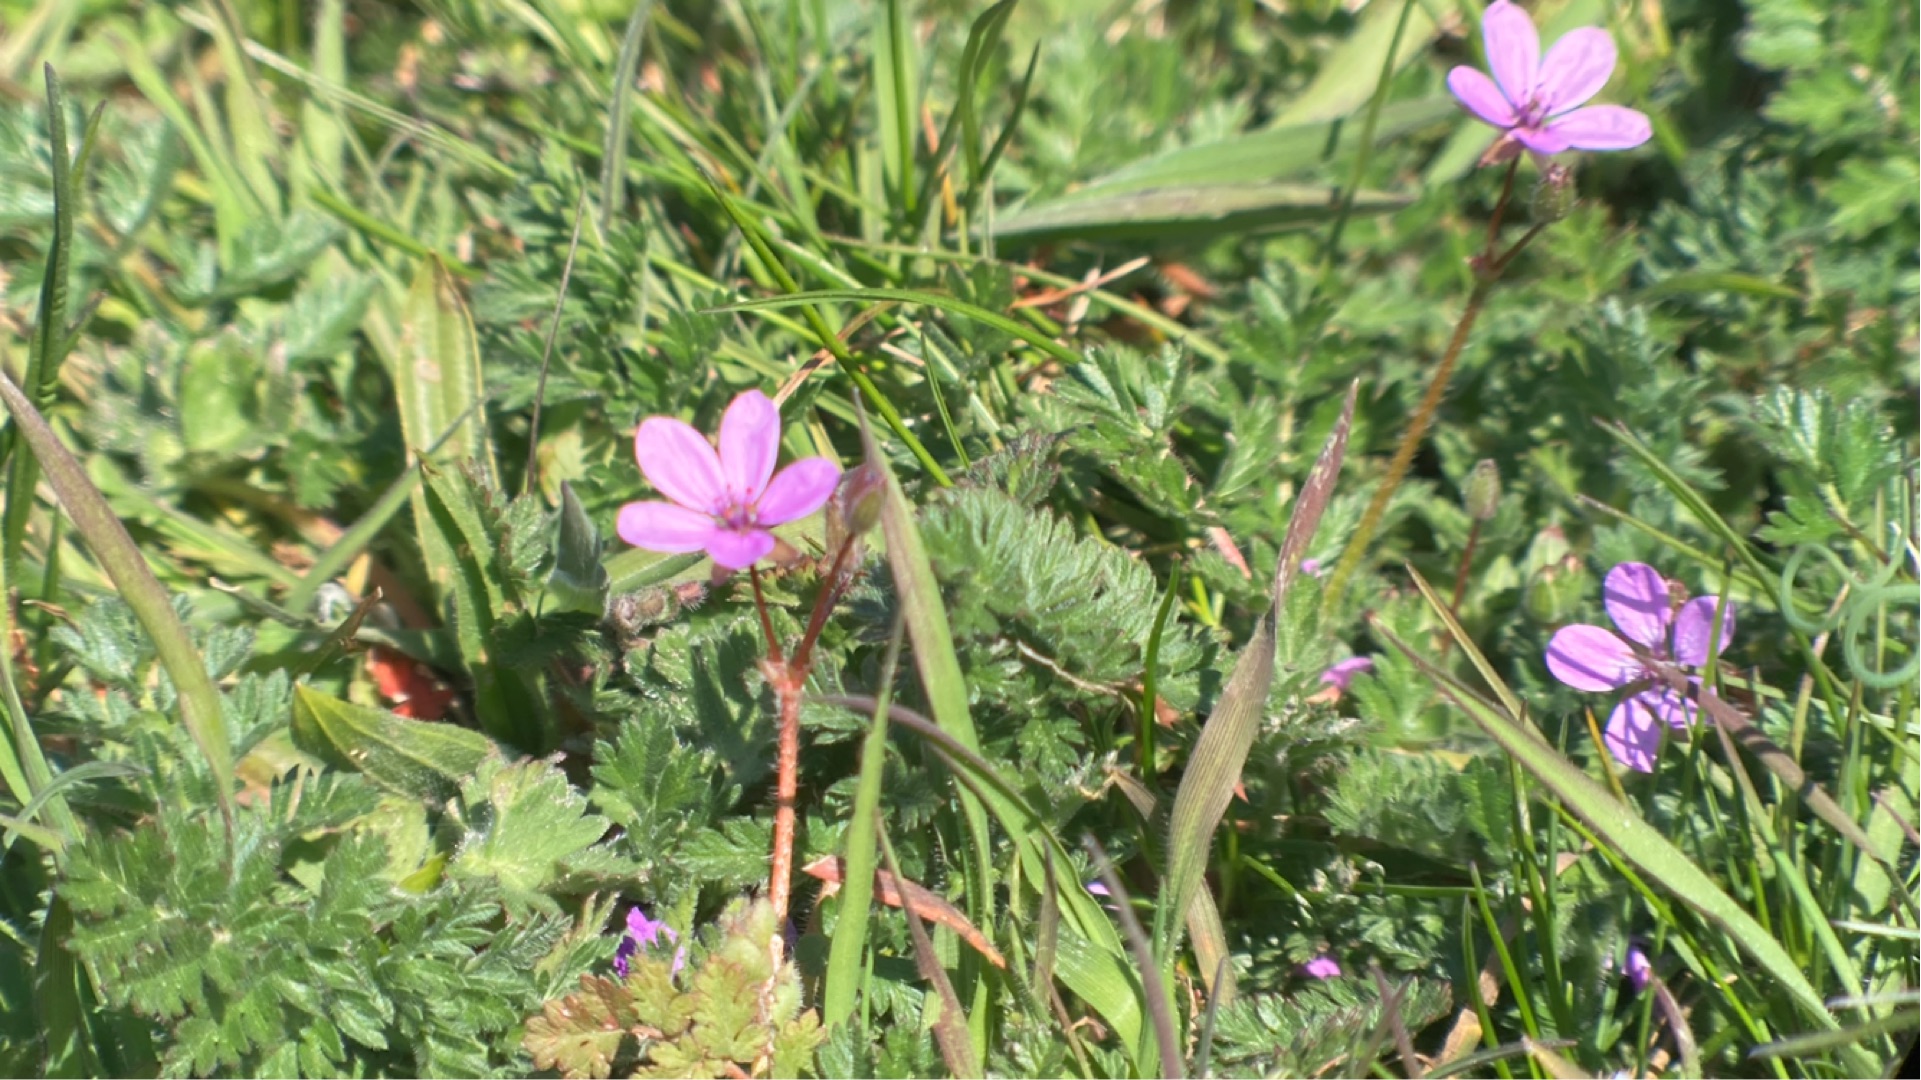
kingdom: Plantae
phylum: Tracheophyta
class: Magnoliopsida
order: Geraniales
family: Geraniaceae
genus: Erodium
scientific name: Erodium cicutarium
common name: Hejrenæb
